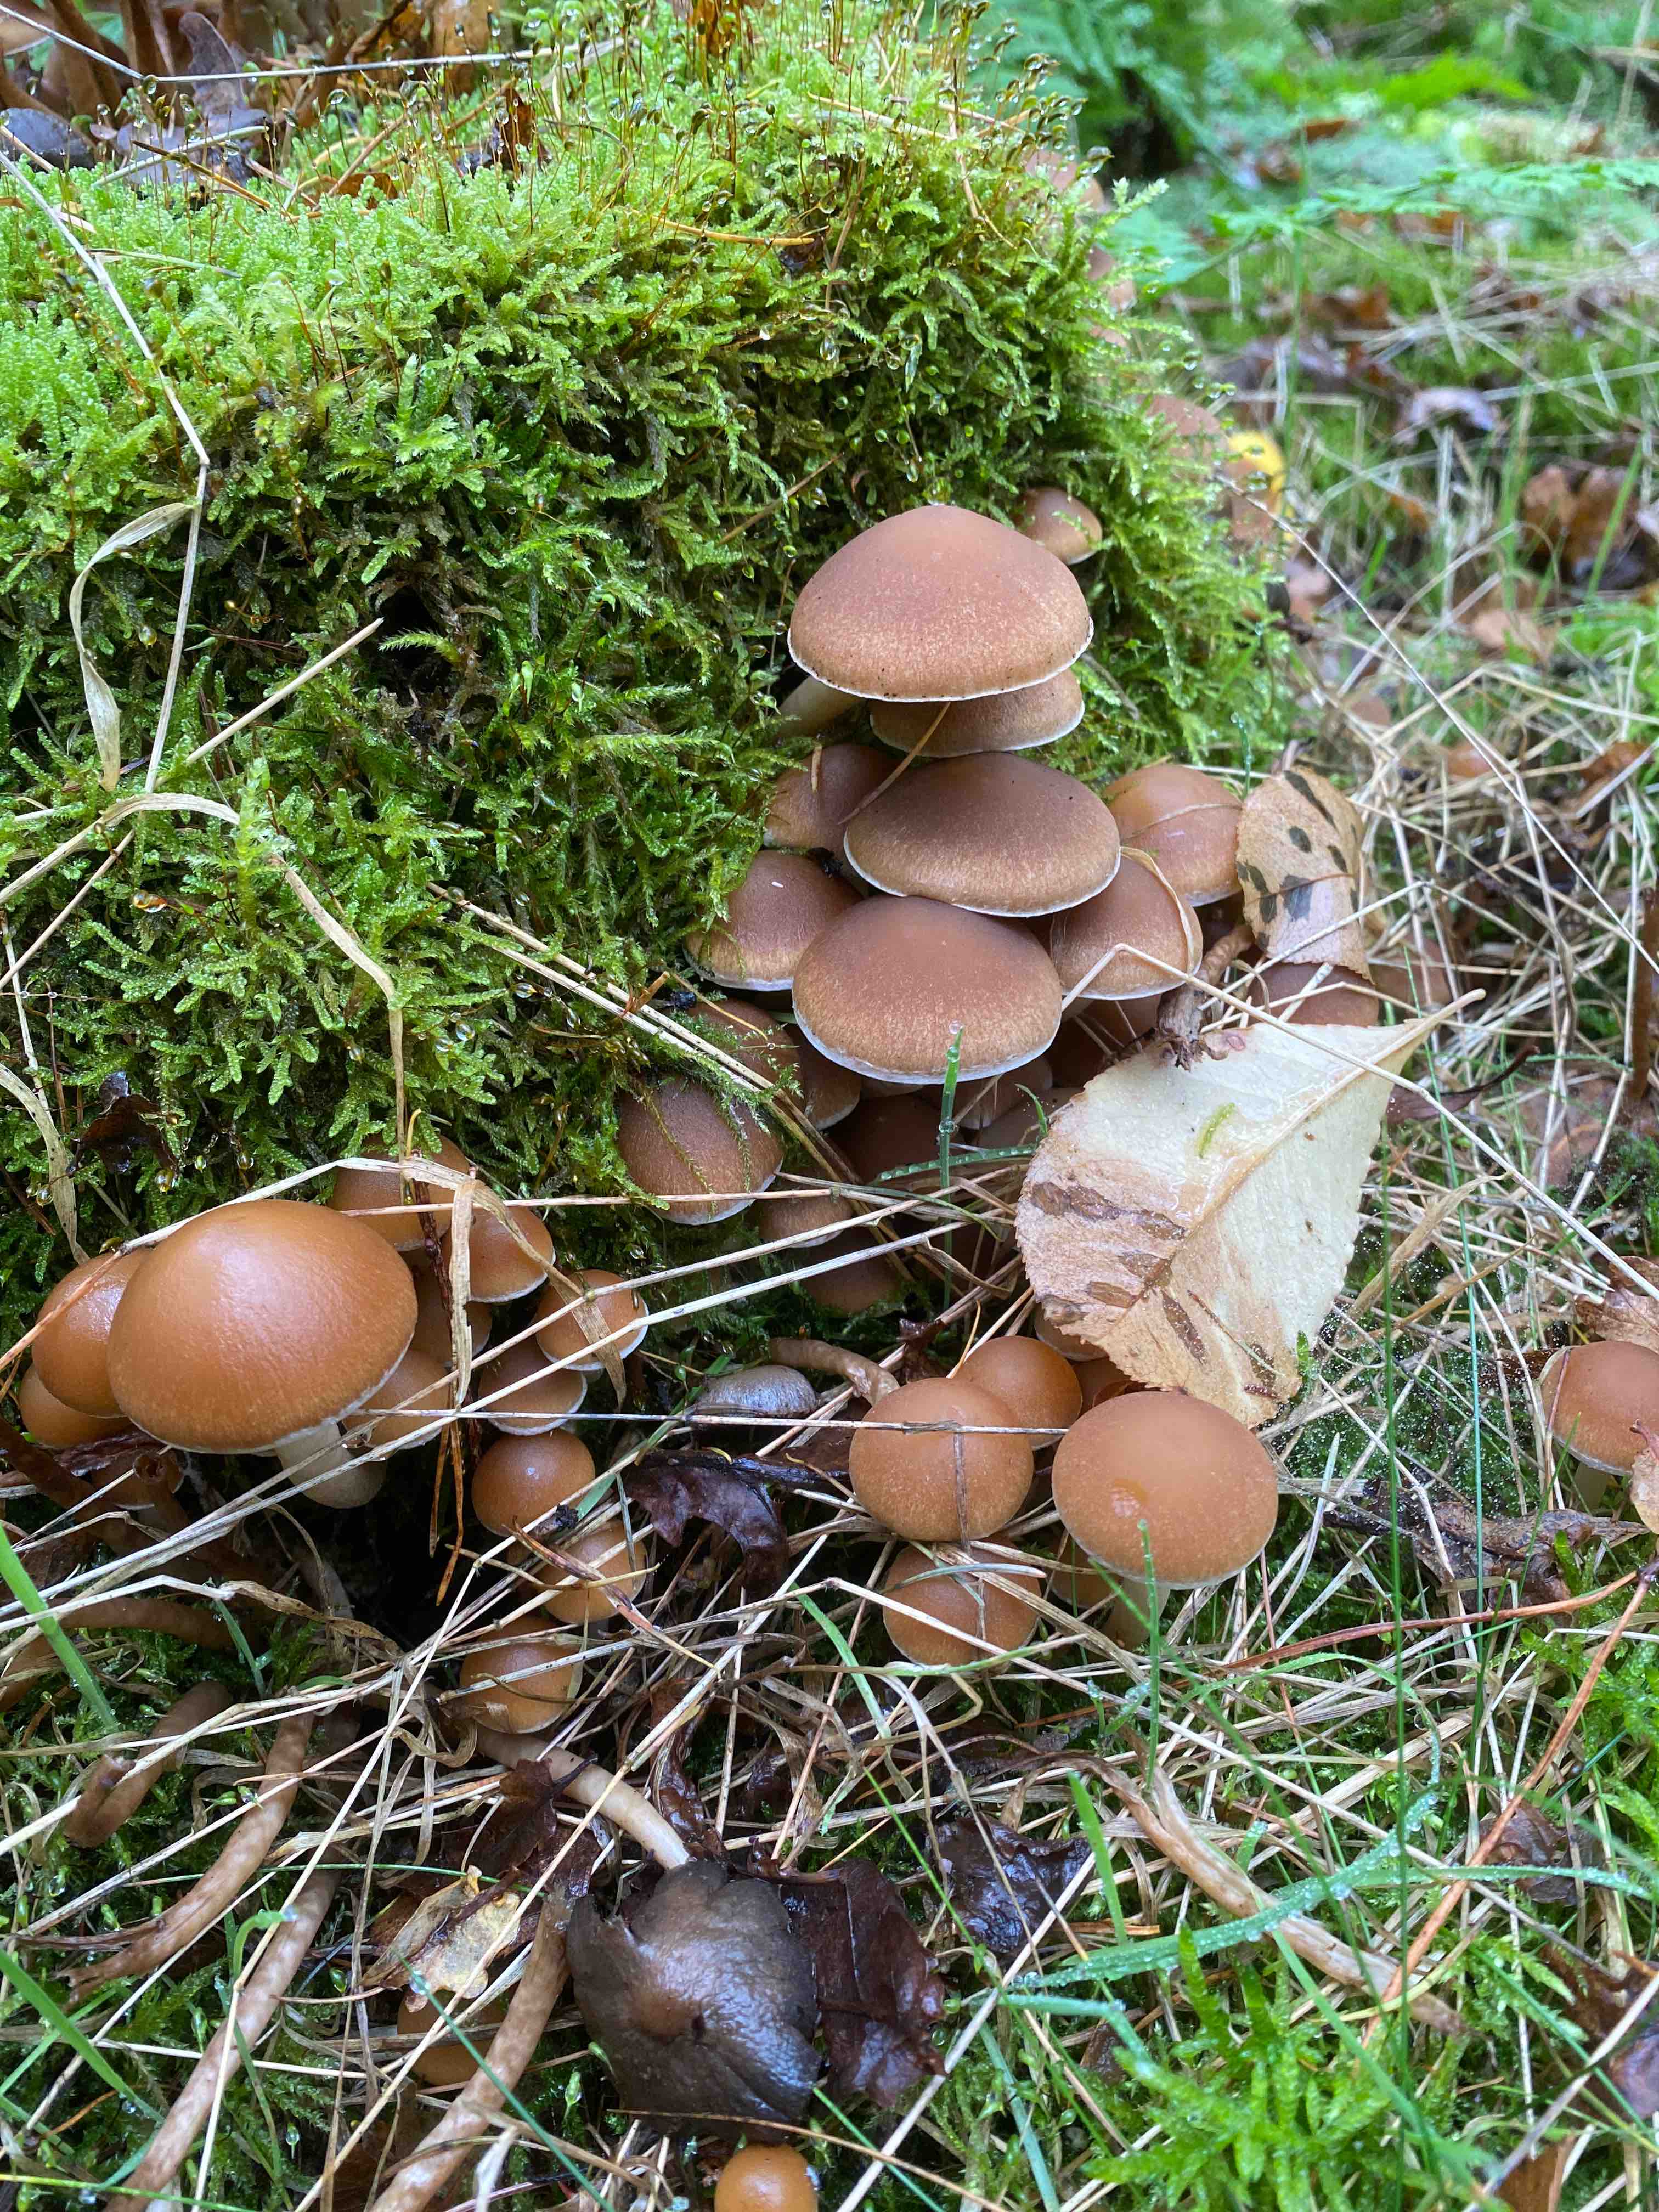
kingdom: Fungi
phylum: Basidiomycota
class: Agaricomycetes
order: Agaricales
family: Psathyrellaceae
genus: Psathyrella
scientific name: Psathyrella piluliformis
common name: lysstokket mørkhat
